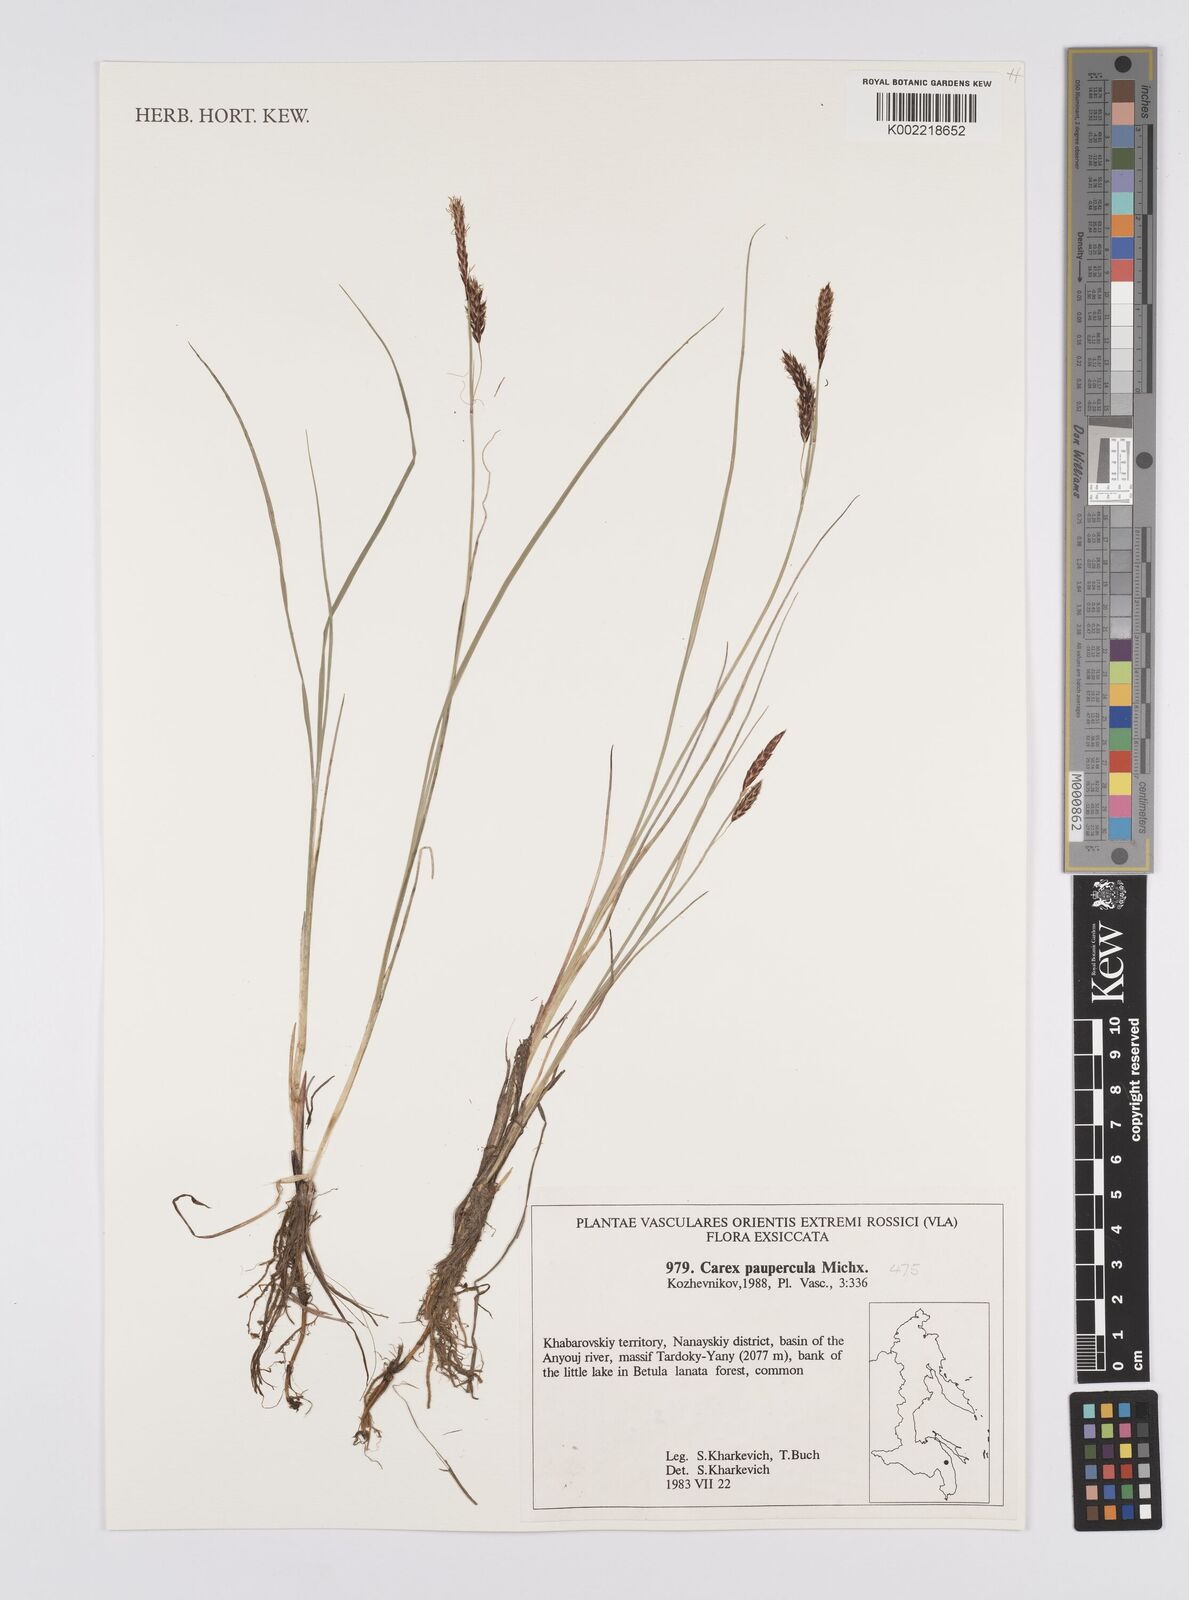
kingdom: Plantae
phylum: Tracheophyta
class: Liliopsida
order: Poales
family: Cyperaceae
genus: Carex
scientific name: Carex magellanica
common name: Bog sedge
